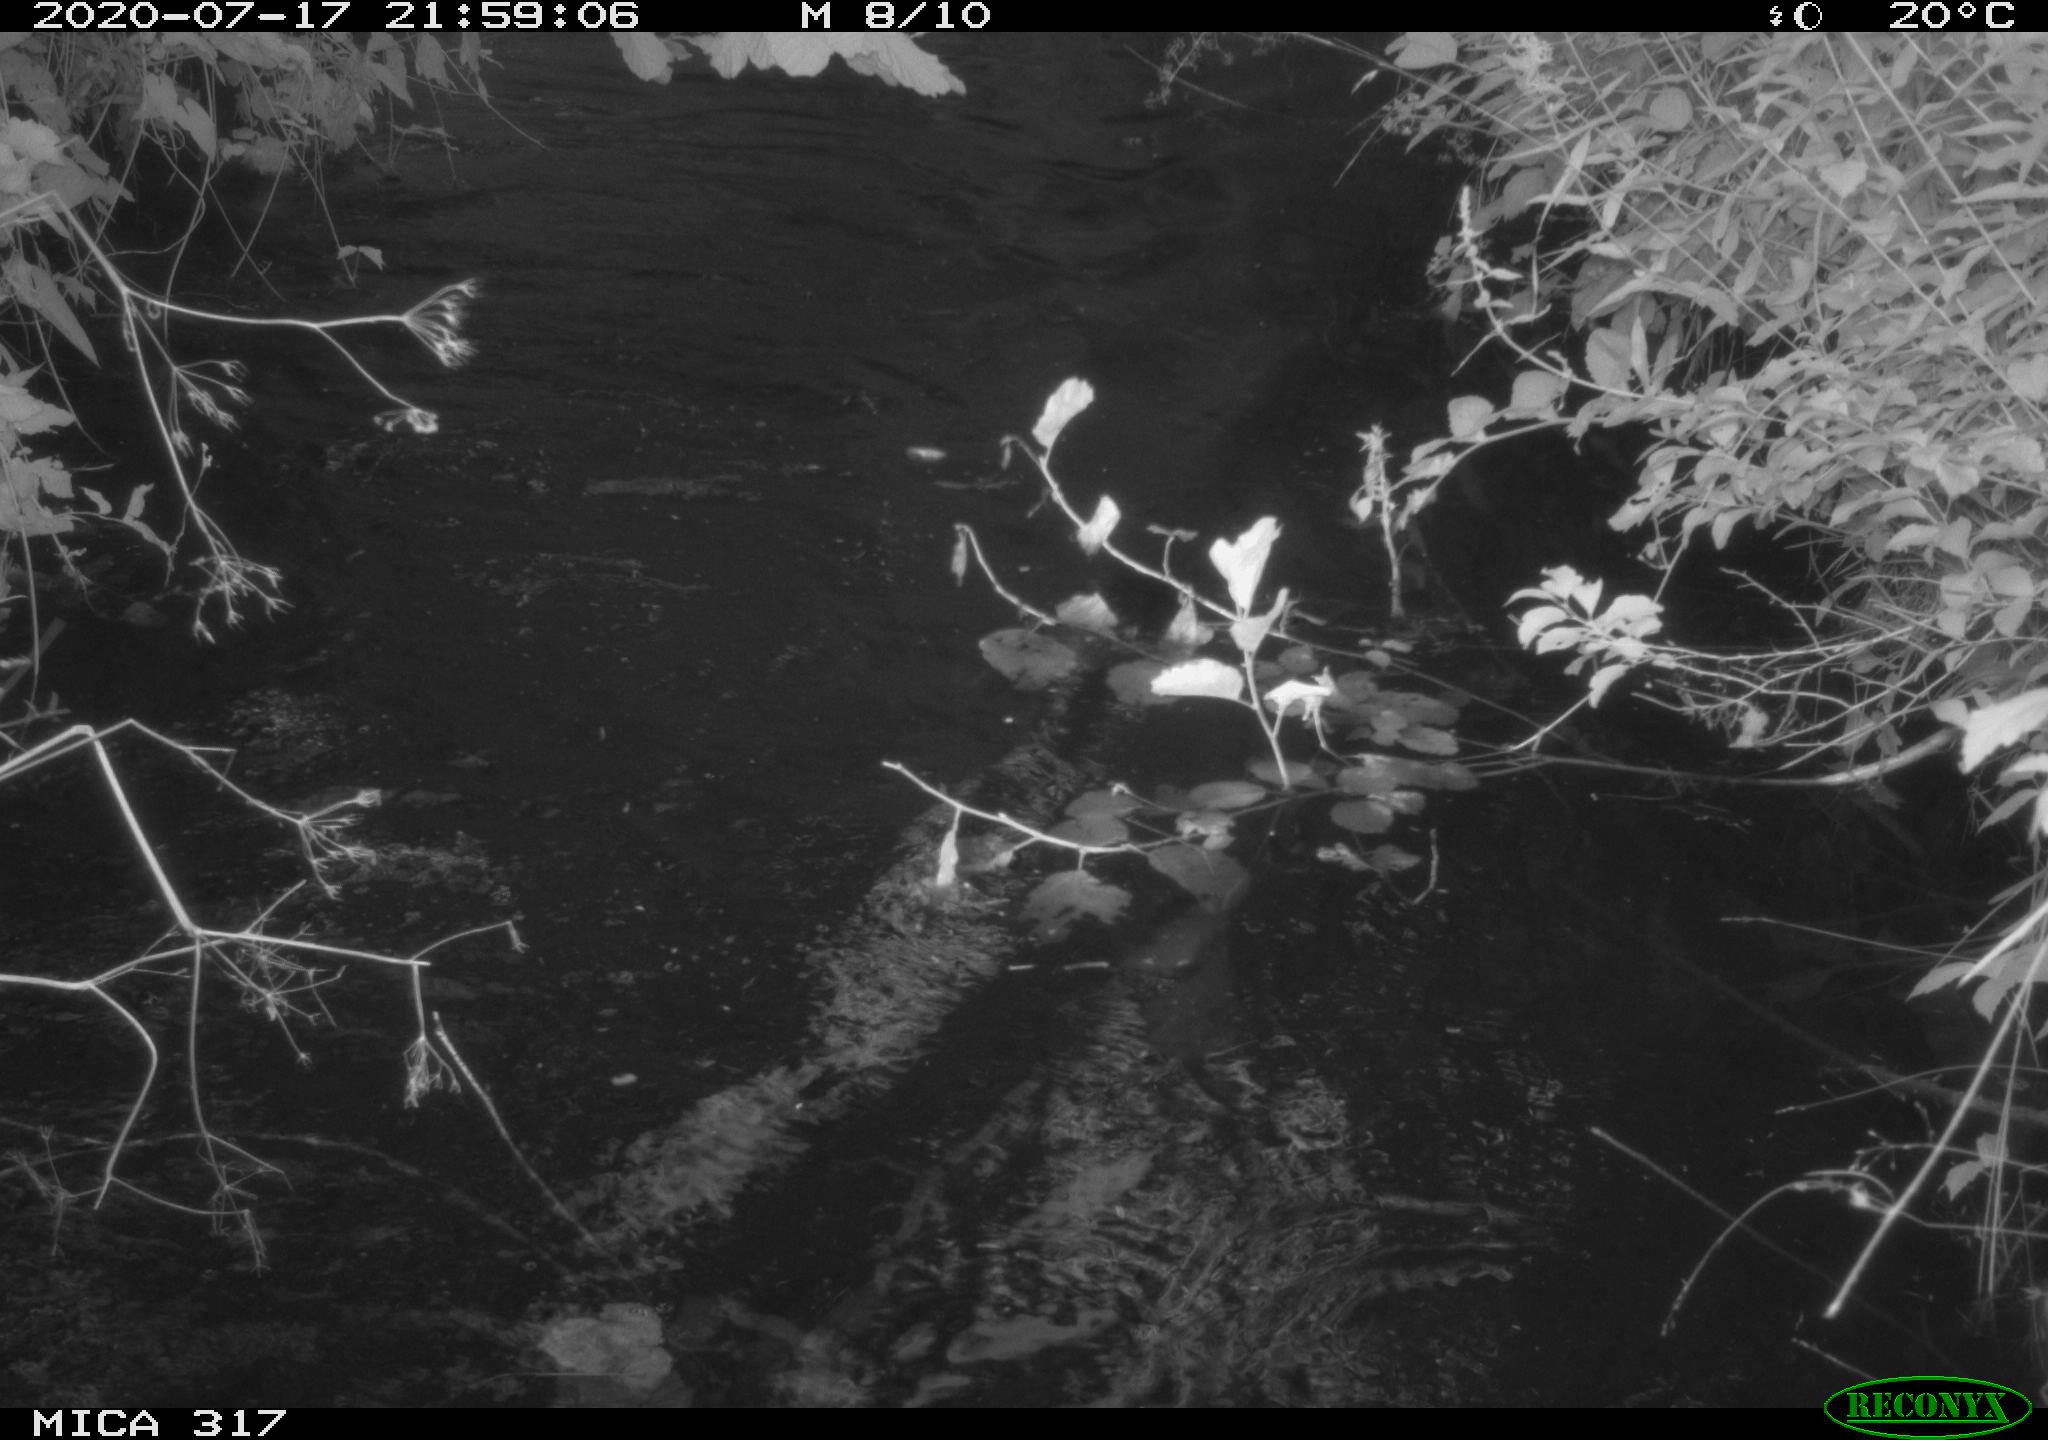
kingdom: Animalia
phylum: Chordata
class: Aves
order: Gruiformes
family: Rallidae
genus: Fulica
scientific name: Fulica atra
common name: Eurasian coot
